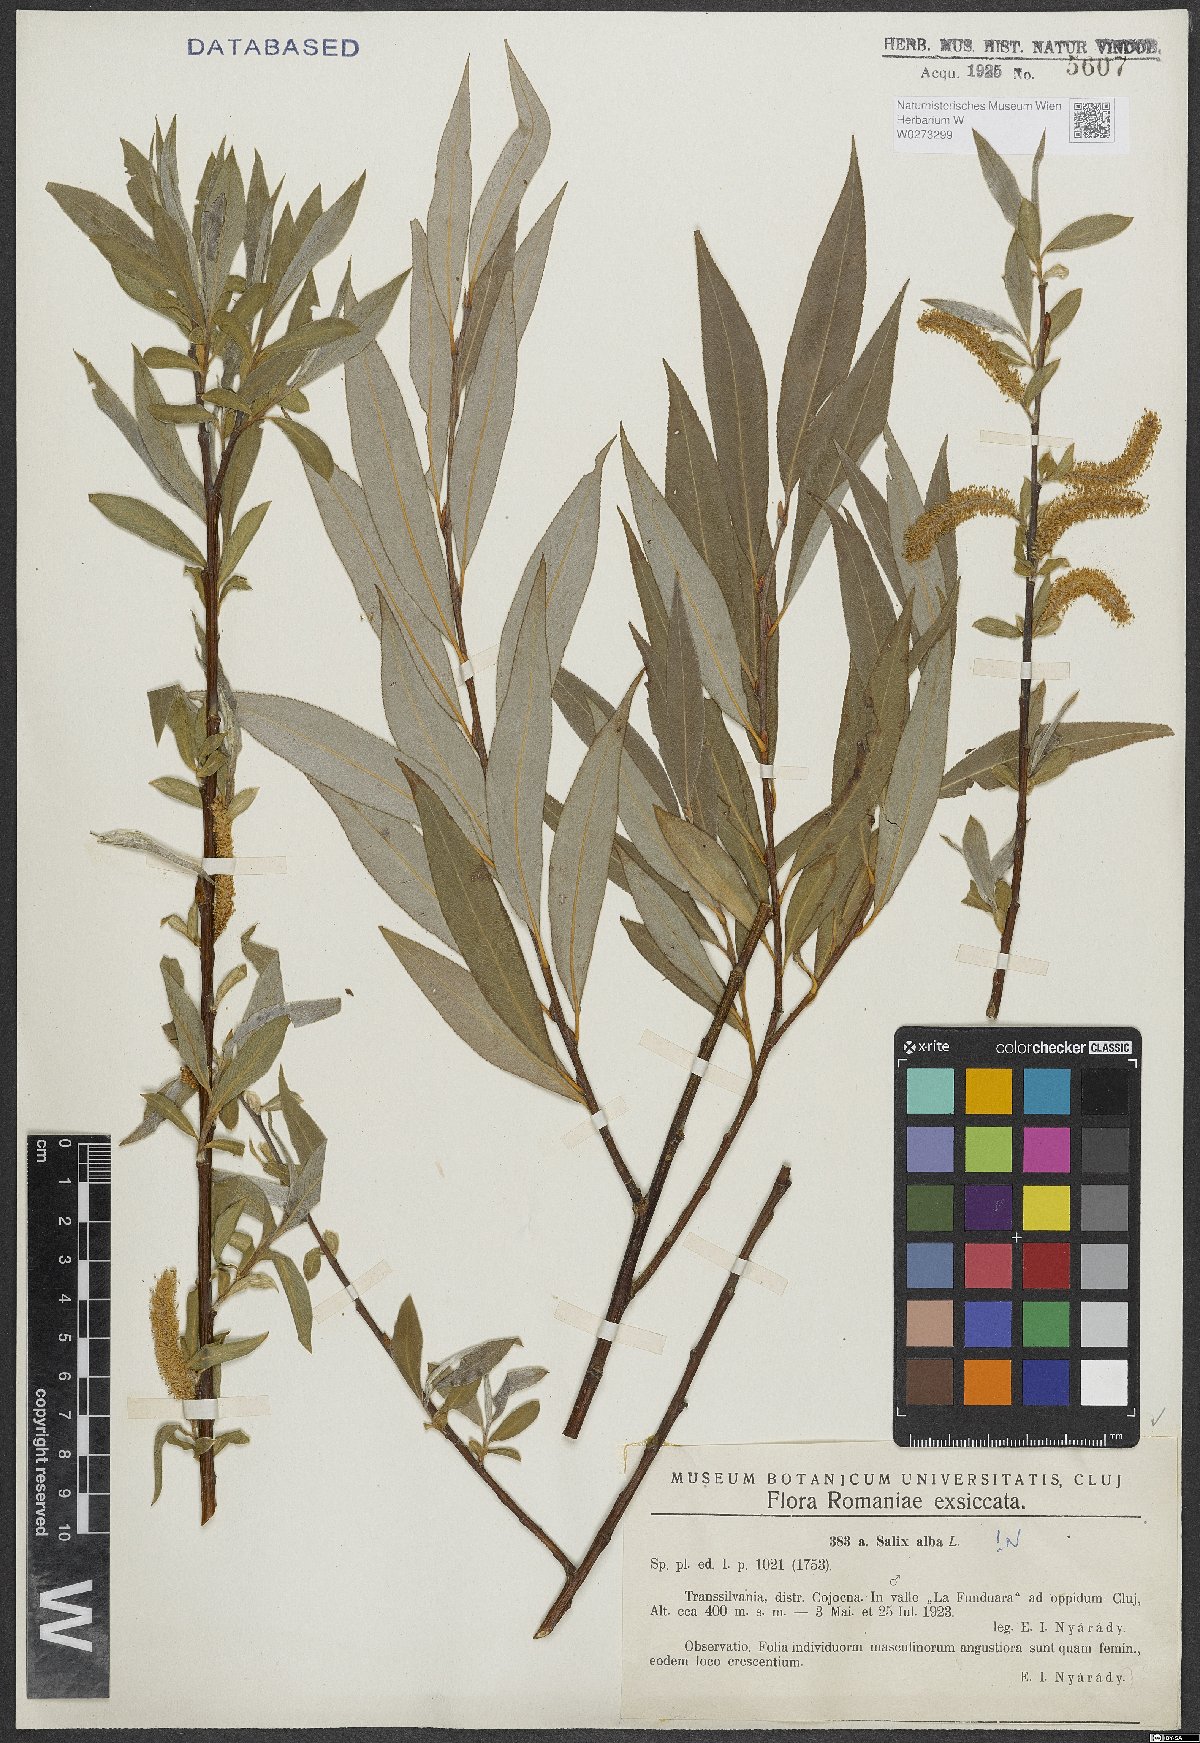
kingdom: Plantae
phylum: Tracheophyta
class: Magnoliopsida
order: Malpighiales
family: Salicaceae
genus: Salix
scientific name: Salix alba
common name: White willow
